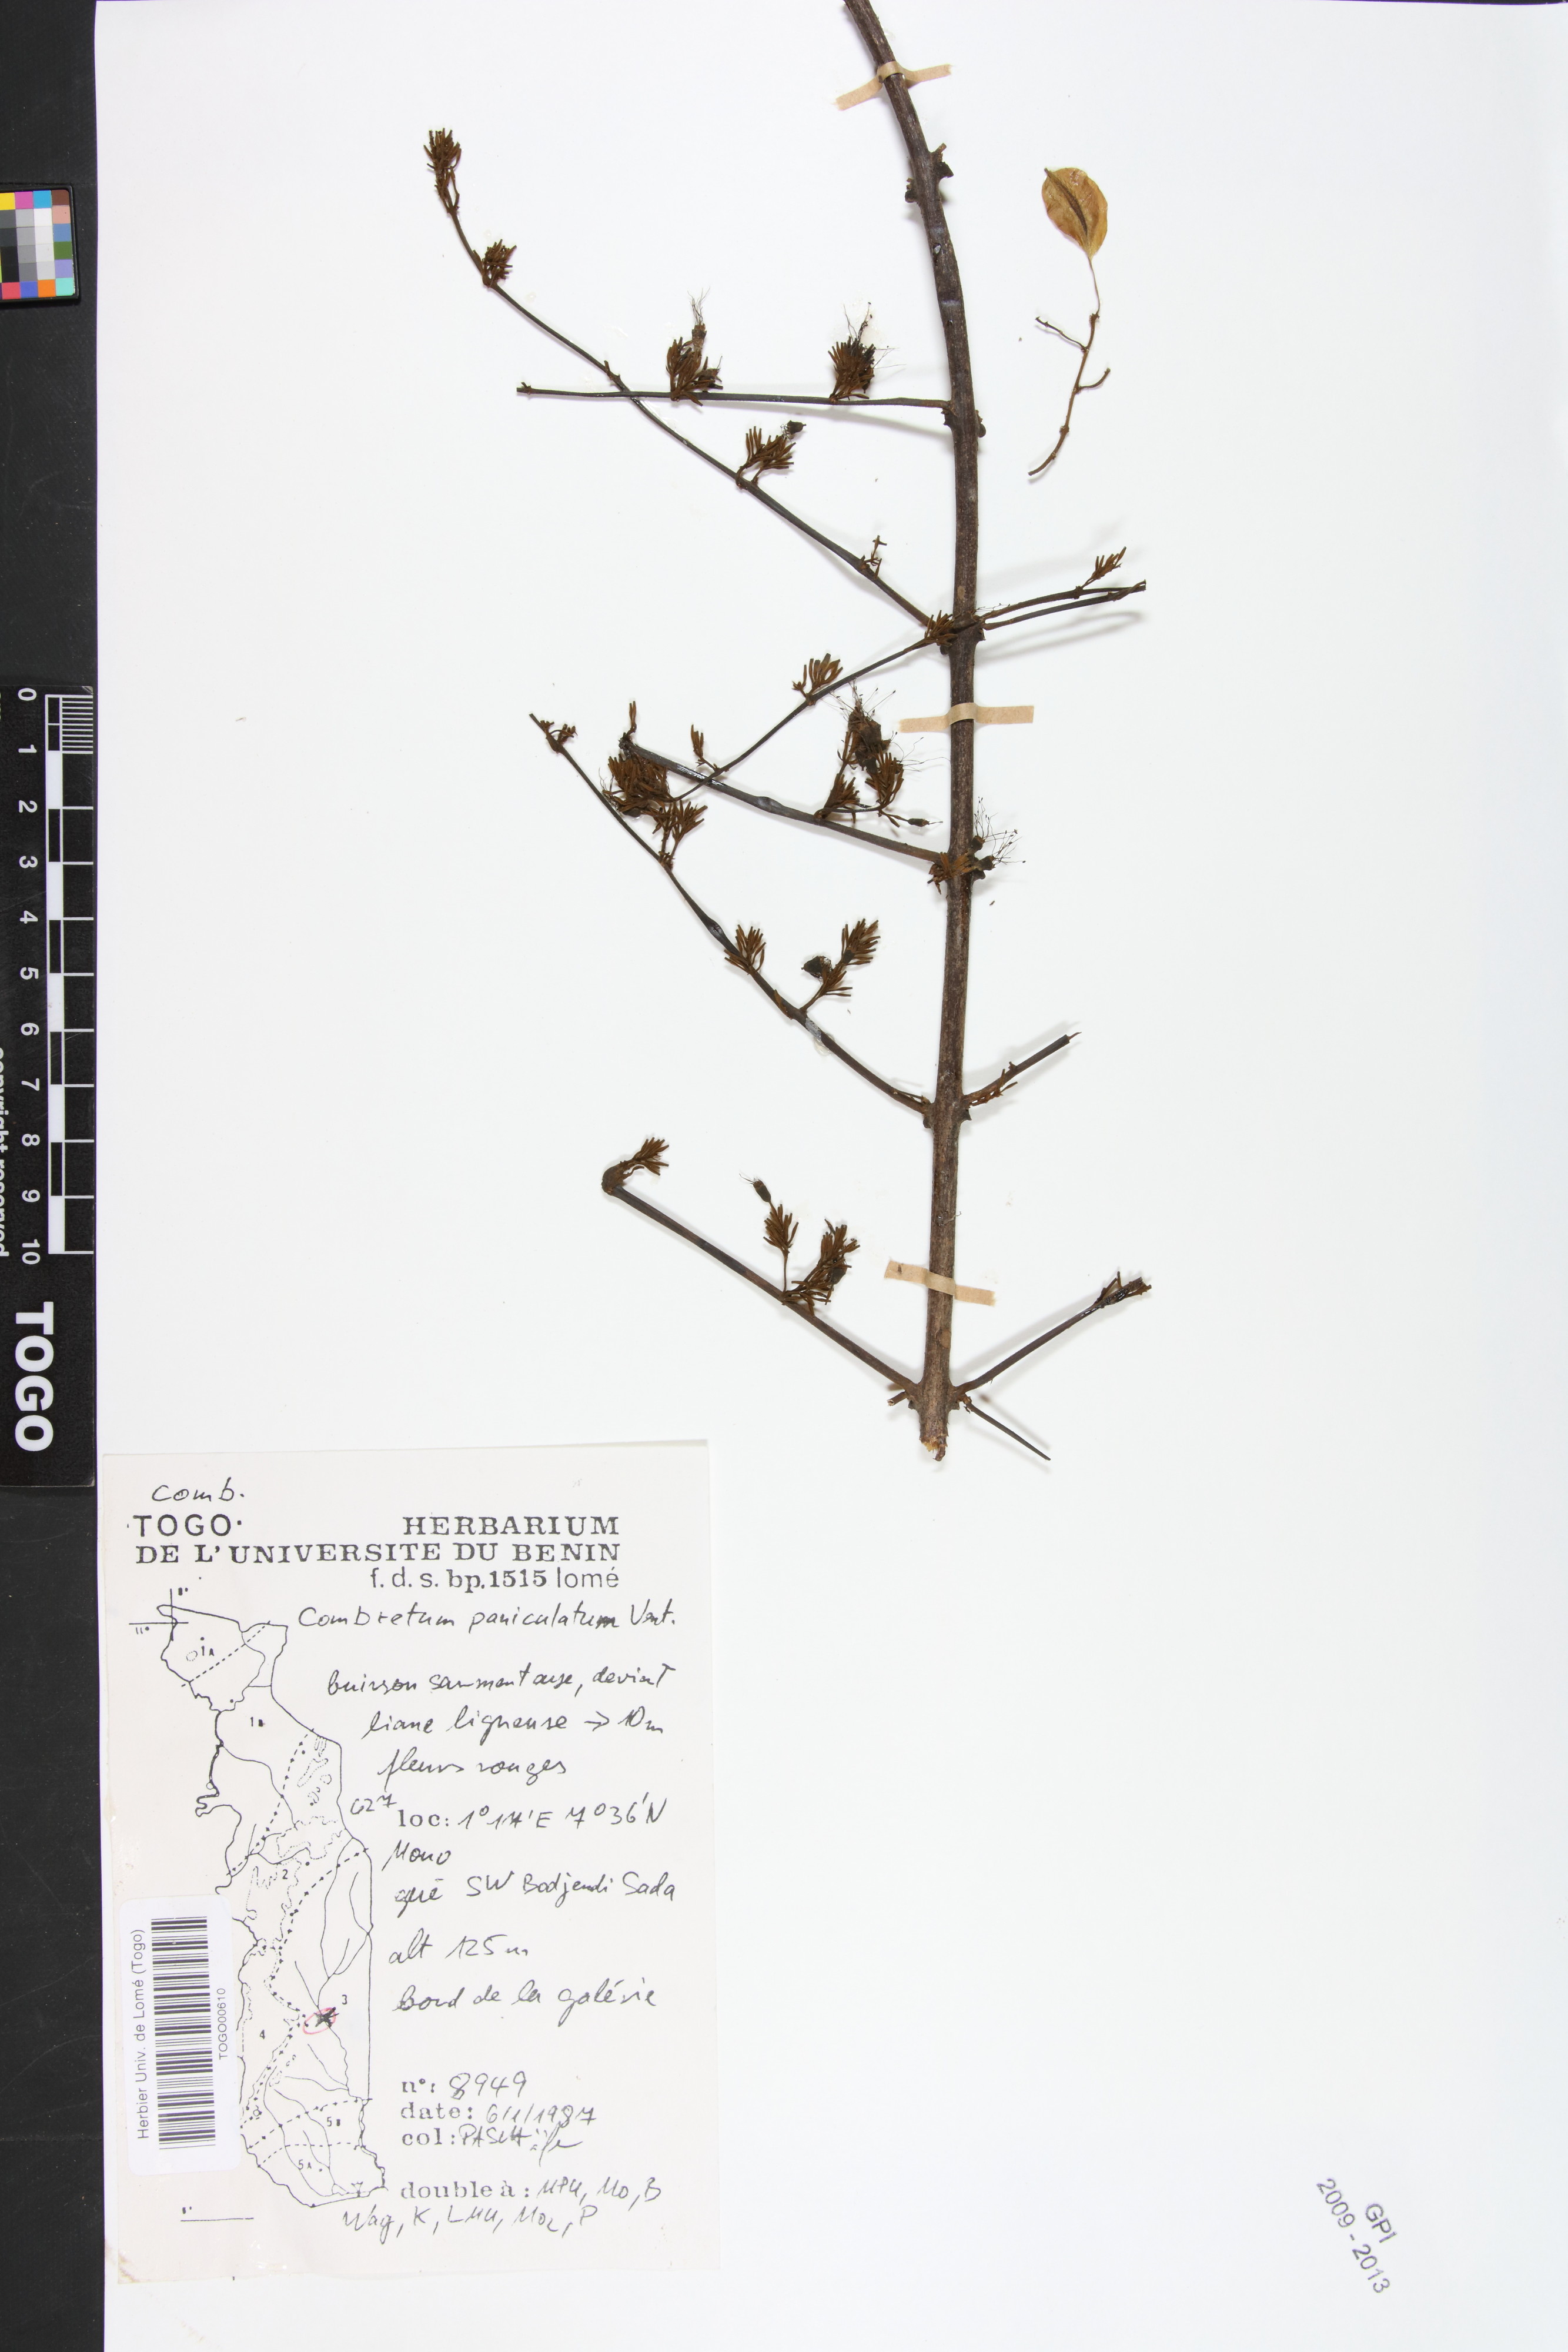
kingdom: Plantae
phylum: Tracheophyta
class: Magnoliopsida
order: Myrtales
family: Combretaceae
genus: Combretum
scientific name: Combretum paniculatum
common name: Fire vine
